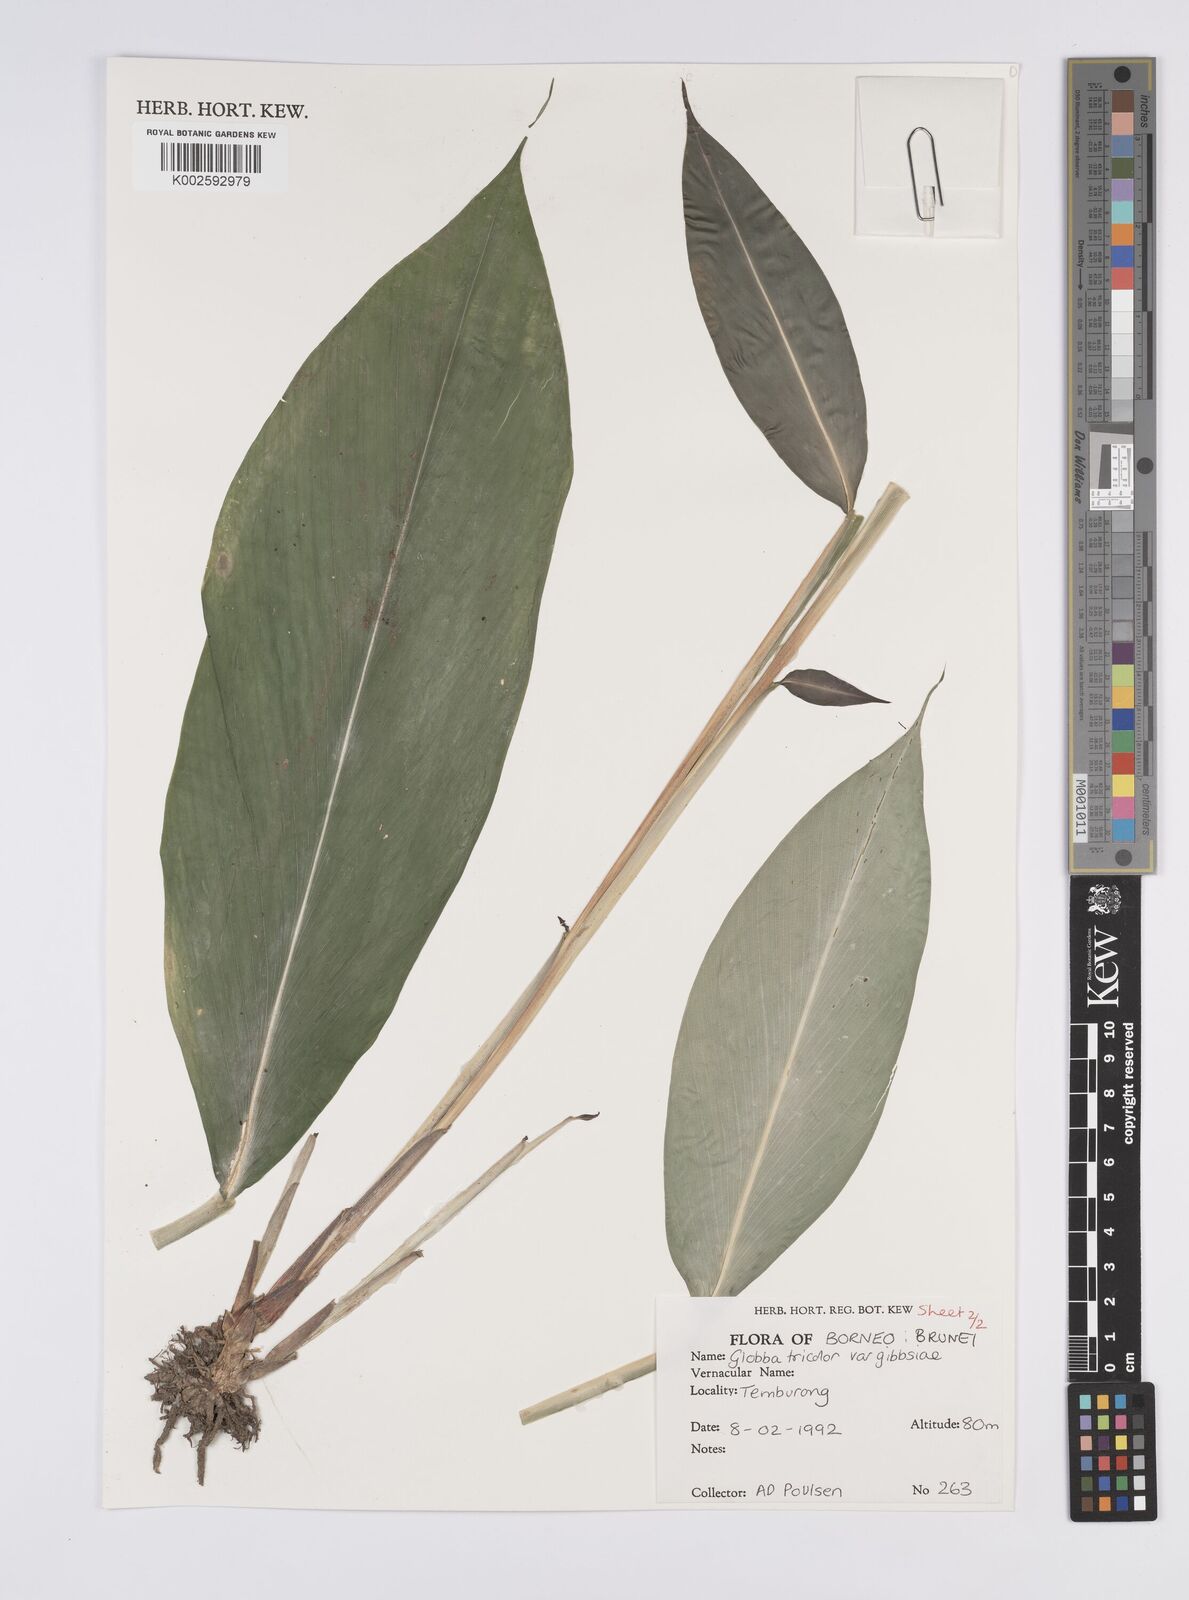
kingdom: Plantae
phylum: Tracheophyta
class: Liliopsida
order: Zingiberales
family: Zingiberaceae
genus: Globba
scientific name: Globba tricolor
